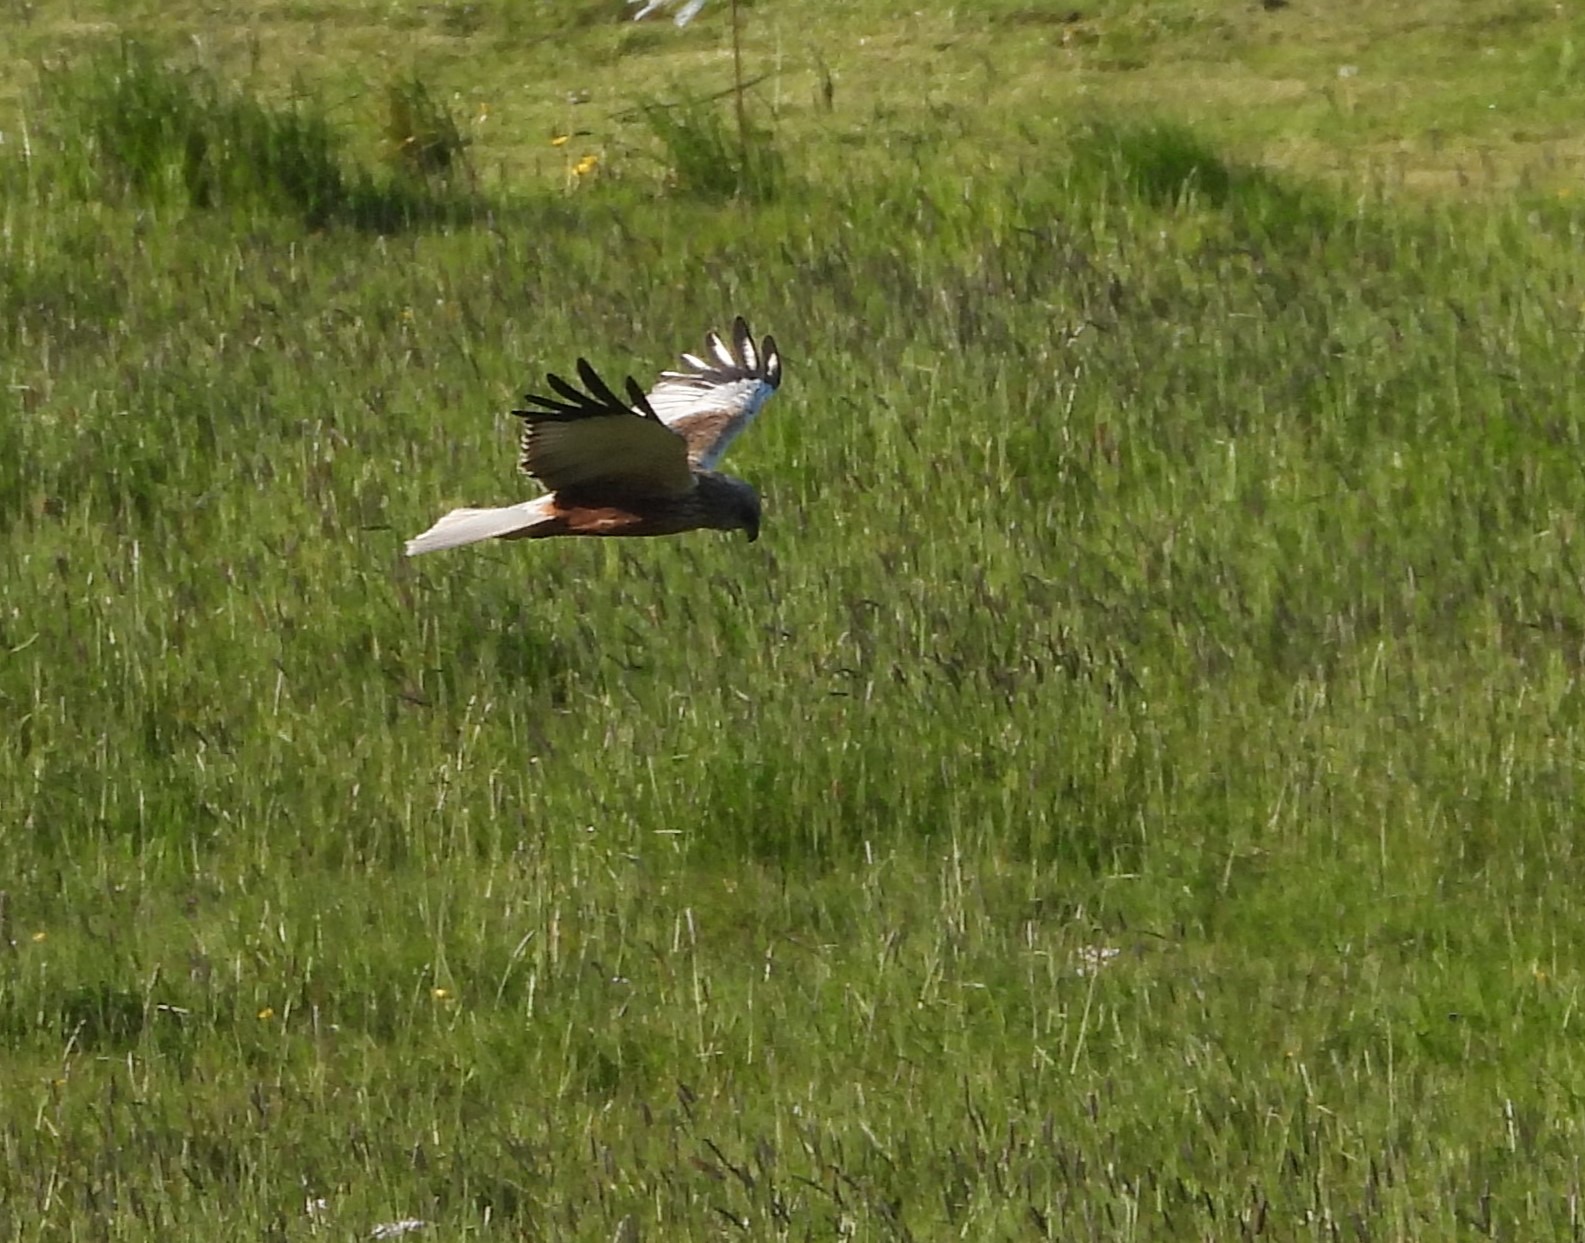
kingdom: Animalia
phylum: Chordata
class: Aves
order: Accipitriformes
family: Accipitridae
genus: Circus
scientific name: Circus aeruginosus
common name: Rørhøg
